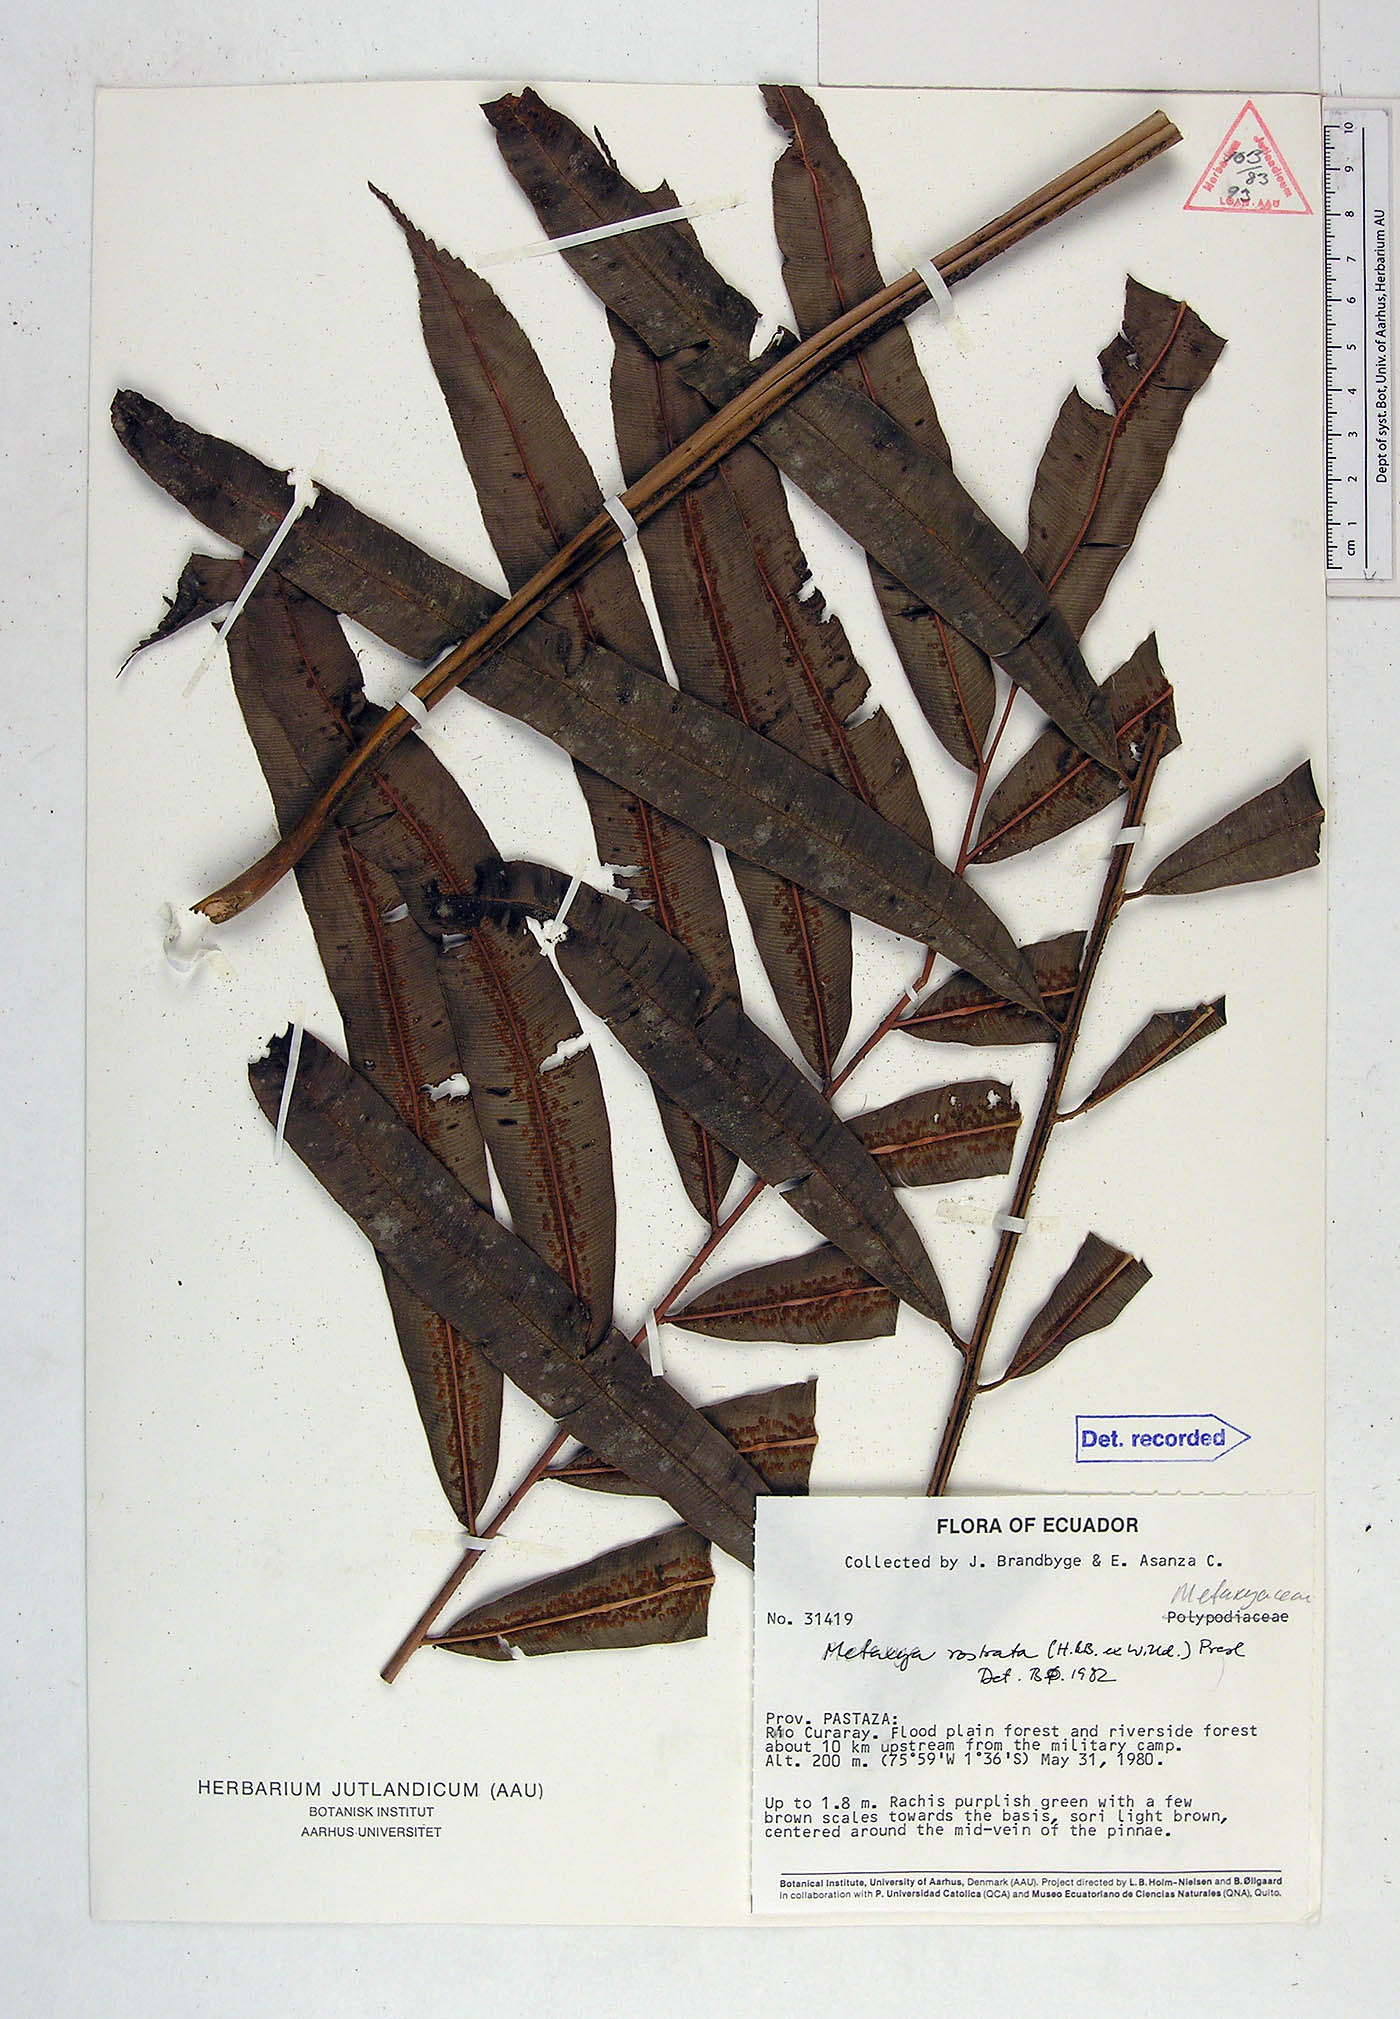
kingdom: Plantae
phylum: Tracheophyta
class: Polypodiopsida
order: Cyatheales
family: Metaxyaceae
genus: Metaxya
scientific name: Metaxya parkeri
